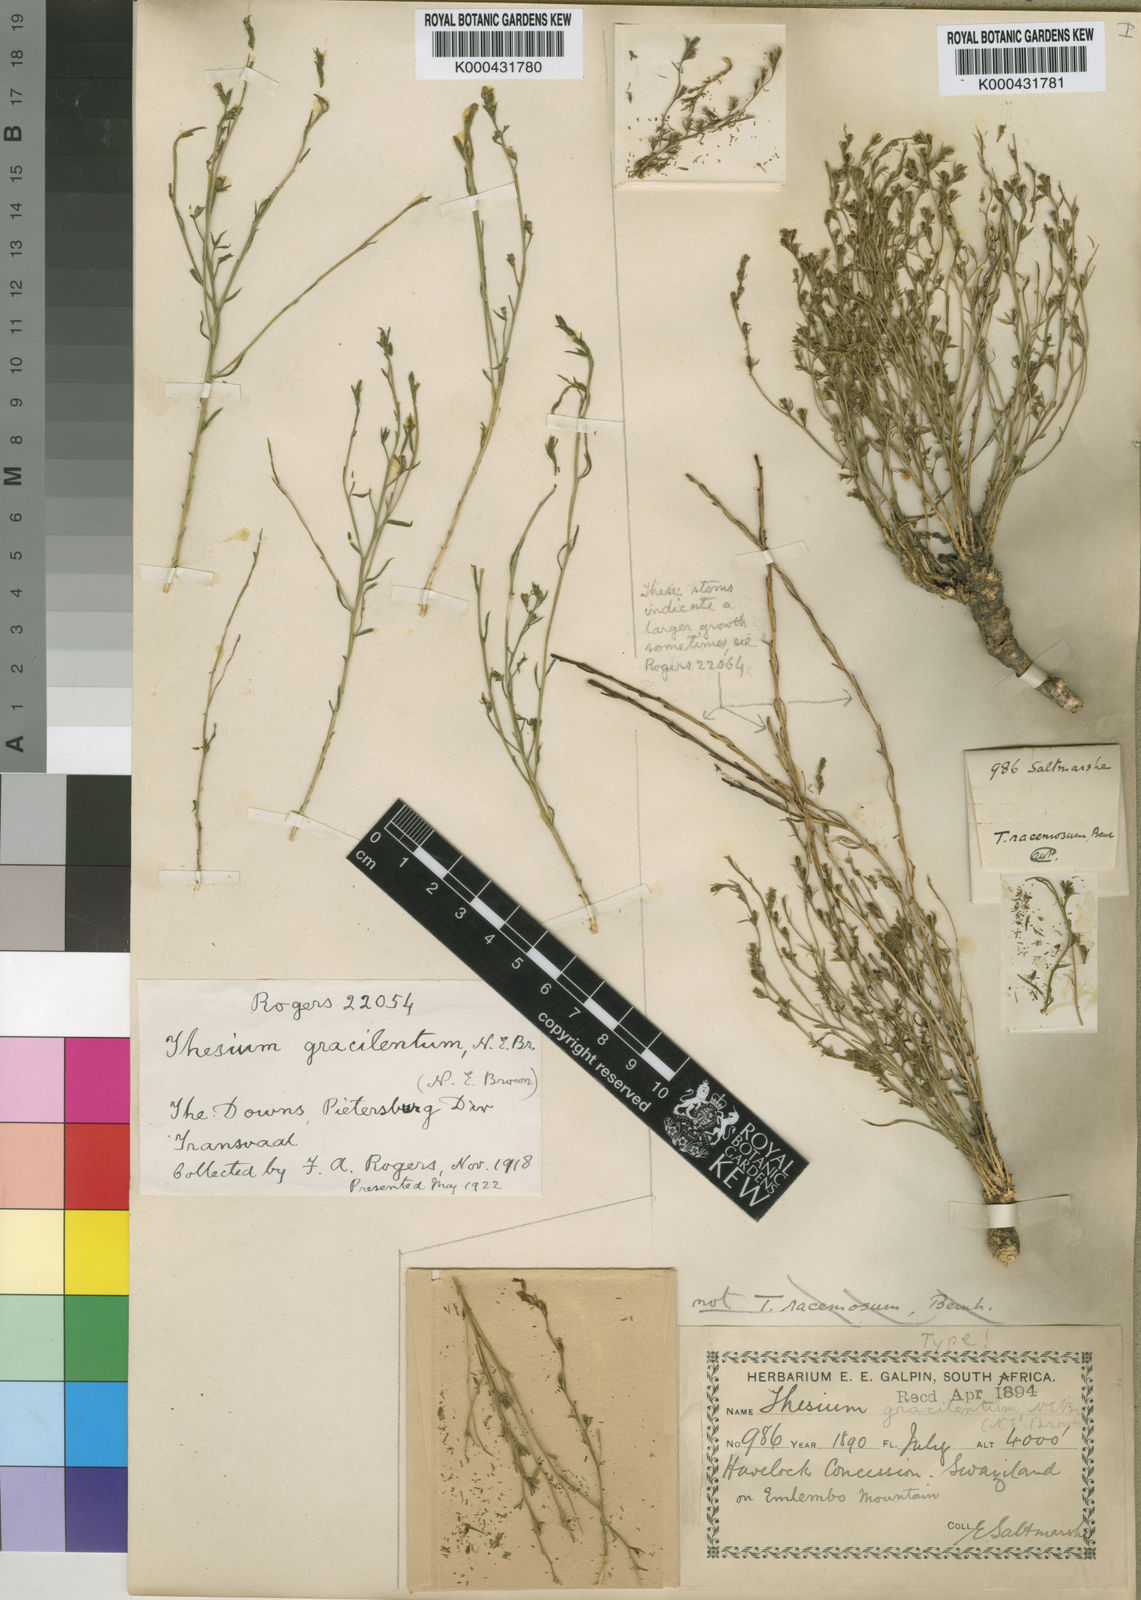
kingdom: Plantae
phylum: Tracheophyta
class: Magnoliopsida
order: Santalales
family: Thesiaceae
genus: Thesium
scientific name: Thesium gracilentum
